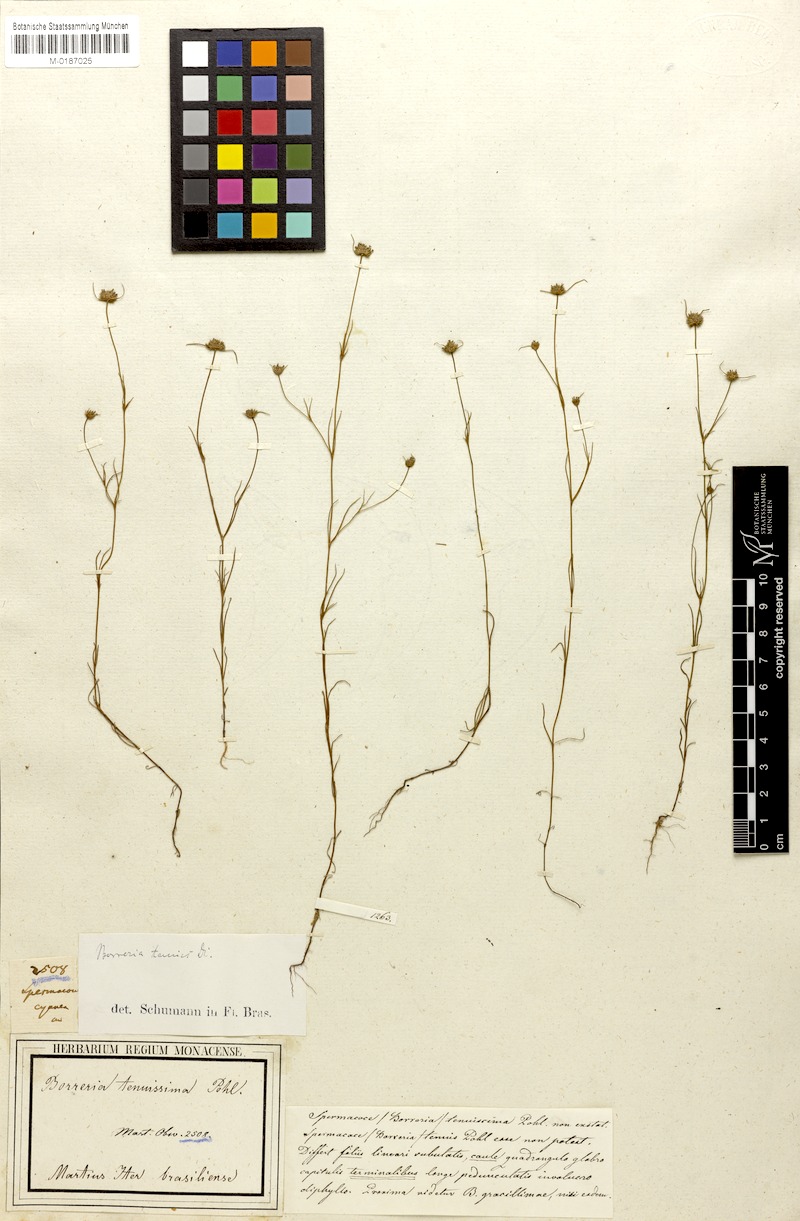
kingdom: Plantae
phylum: Tracheophyta
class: Magnoliopsida
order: Gentianales
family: Rubiaceae
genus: Spermacoce
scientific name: Spermacoce neotenuis
